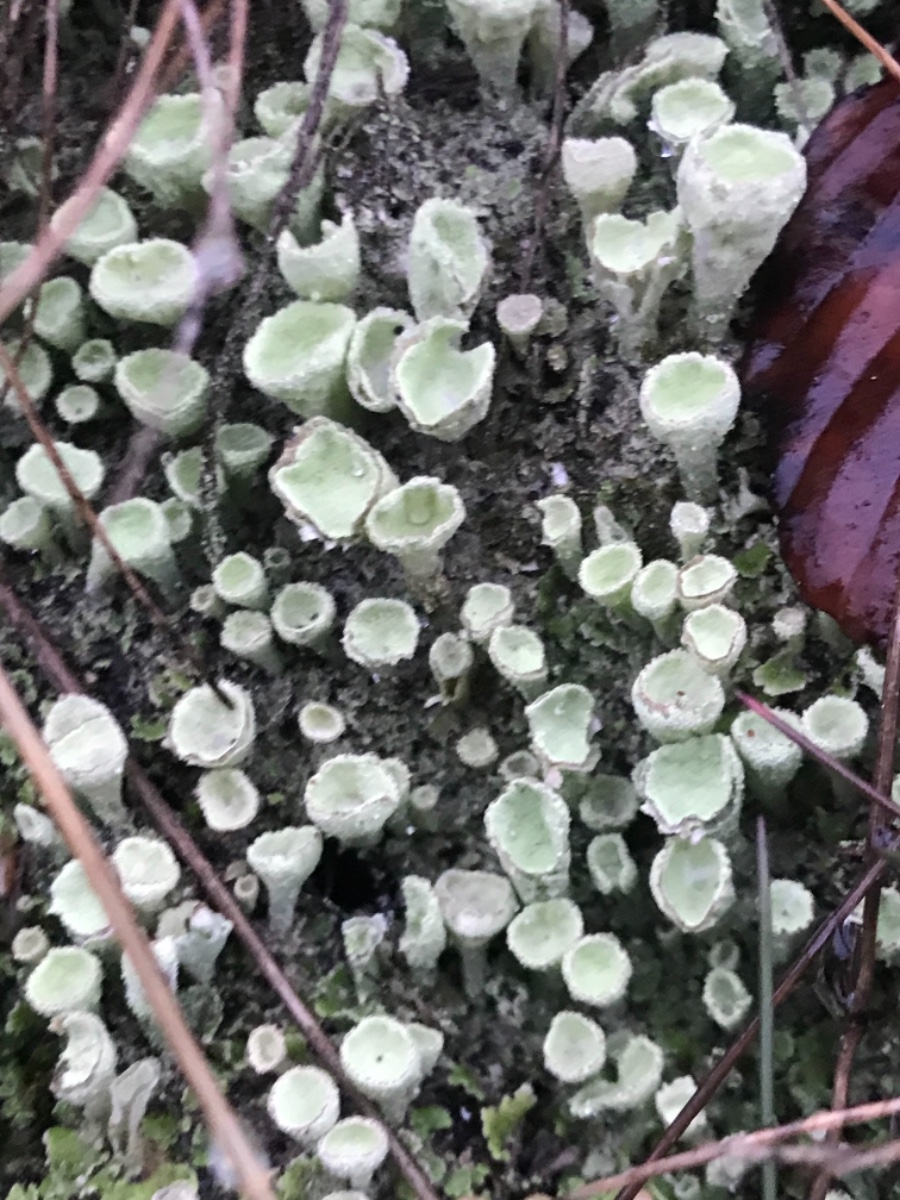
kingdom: Fungi
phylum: Ascomycota
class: Lecanoromycetes
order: Lecanorales
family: Cladoniaceae
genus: Cladonia
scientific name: Cladonia humilis
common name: lav bægerlav
